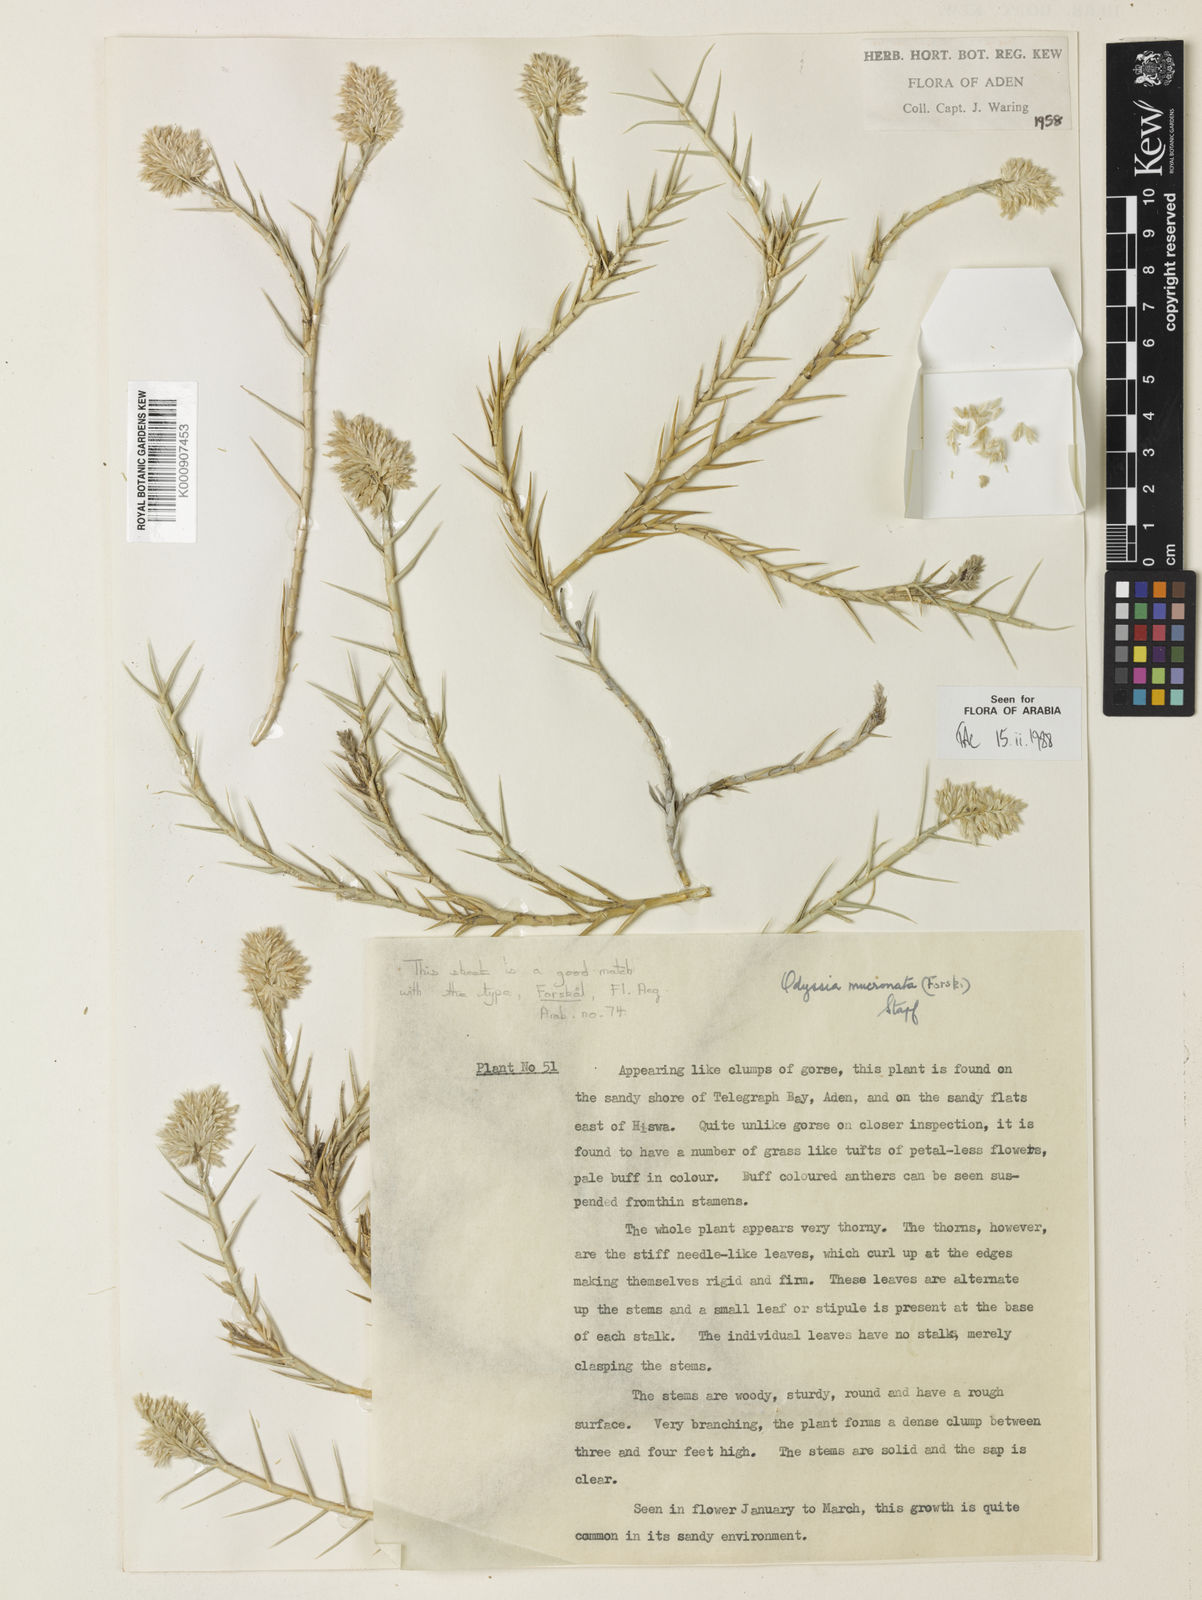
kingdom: Plantae
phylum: Tracheophyta
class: Liliopsida
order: Poales
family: Poaceae
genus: Zaqiqah
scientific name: Zaqiqah mucronata
